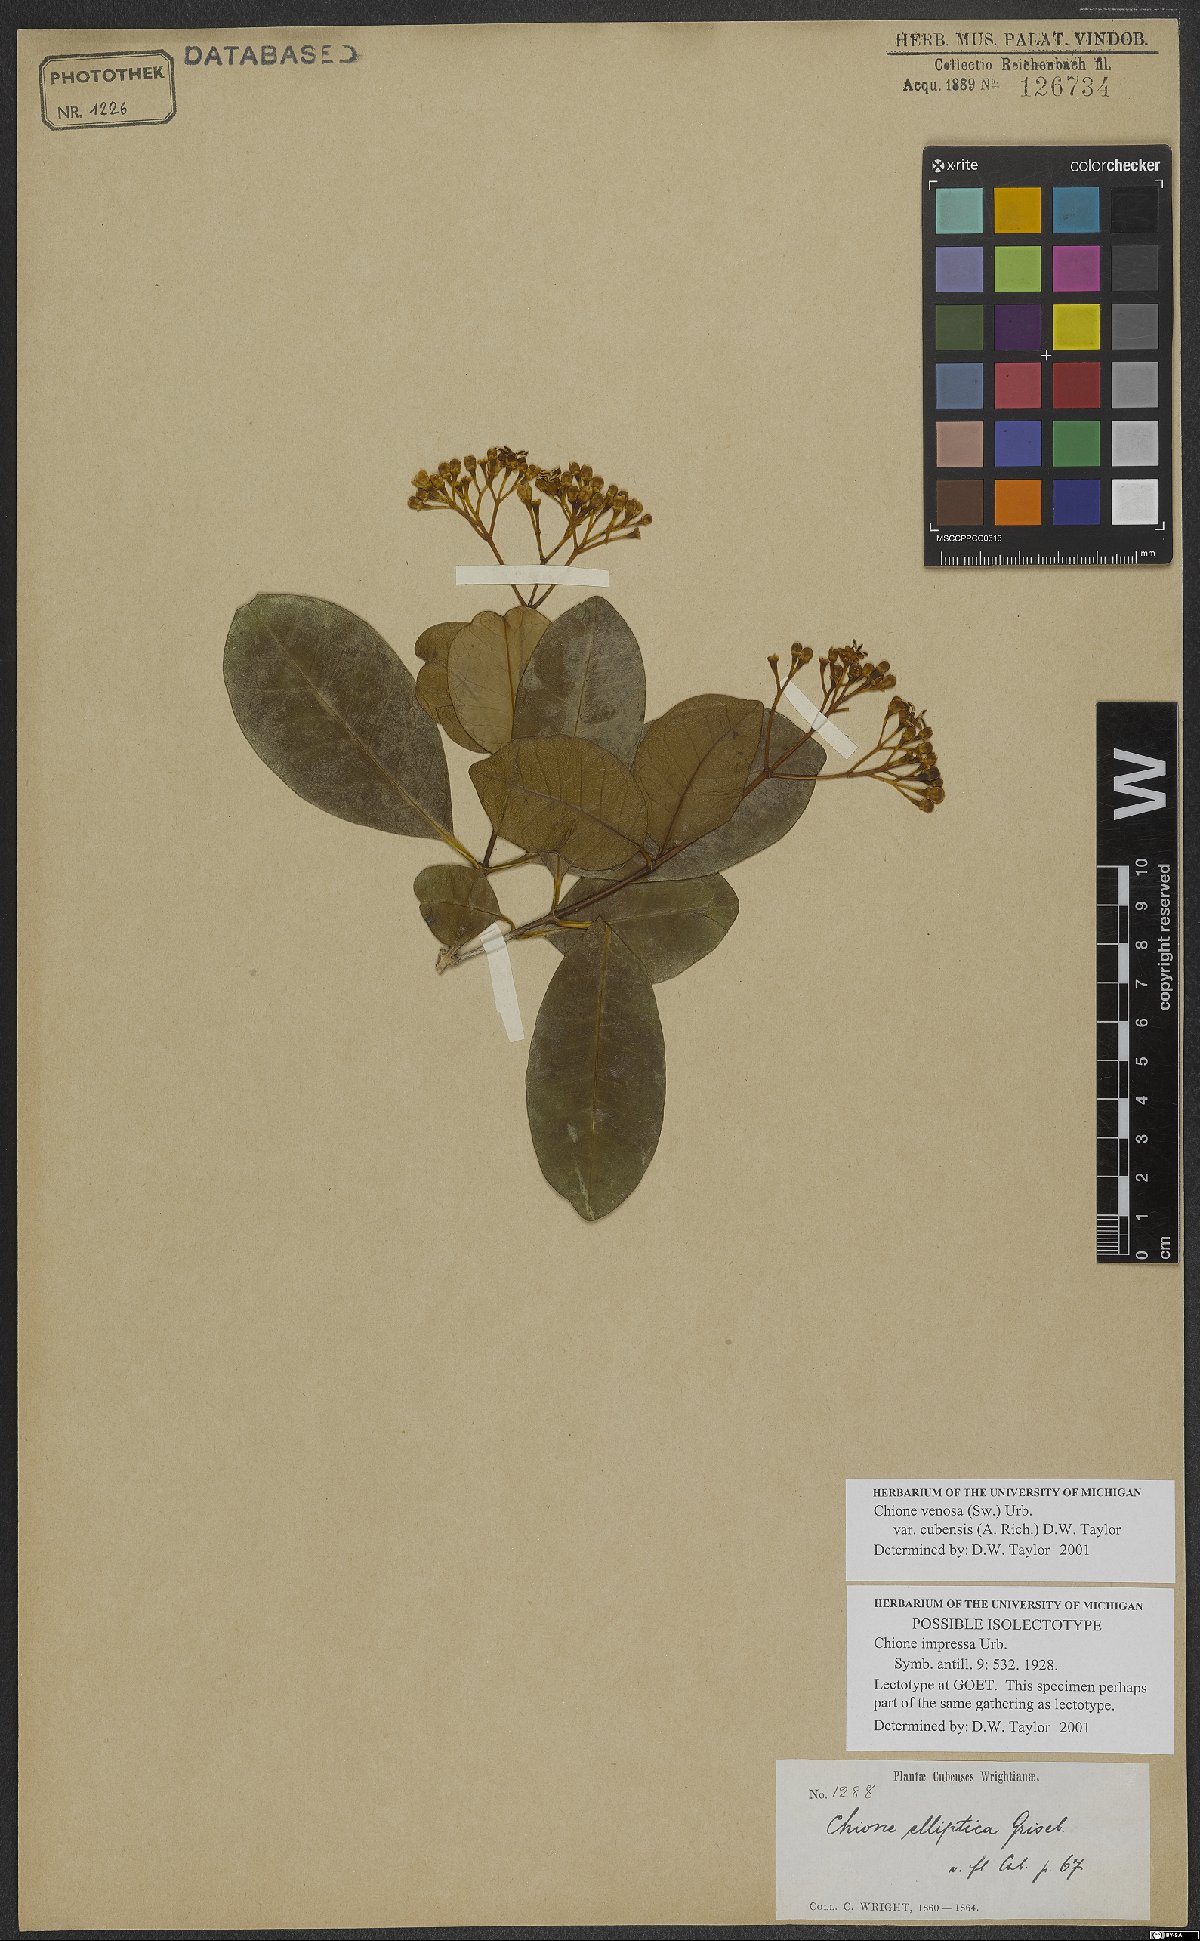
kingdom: Plantae
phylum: Tracheophyta
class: Magnoliopsida
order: Gentianales
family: Rubiaceae
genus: Chione
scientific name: Chione venosa
